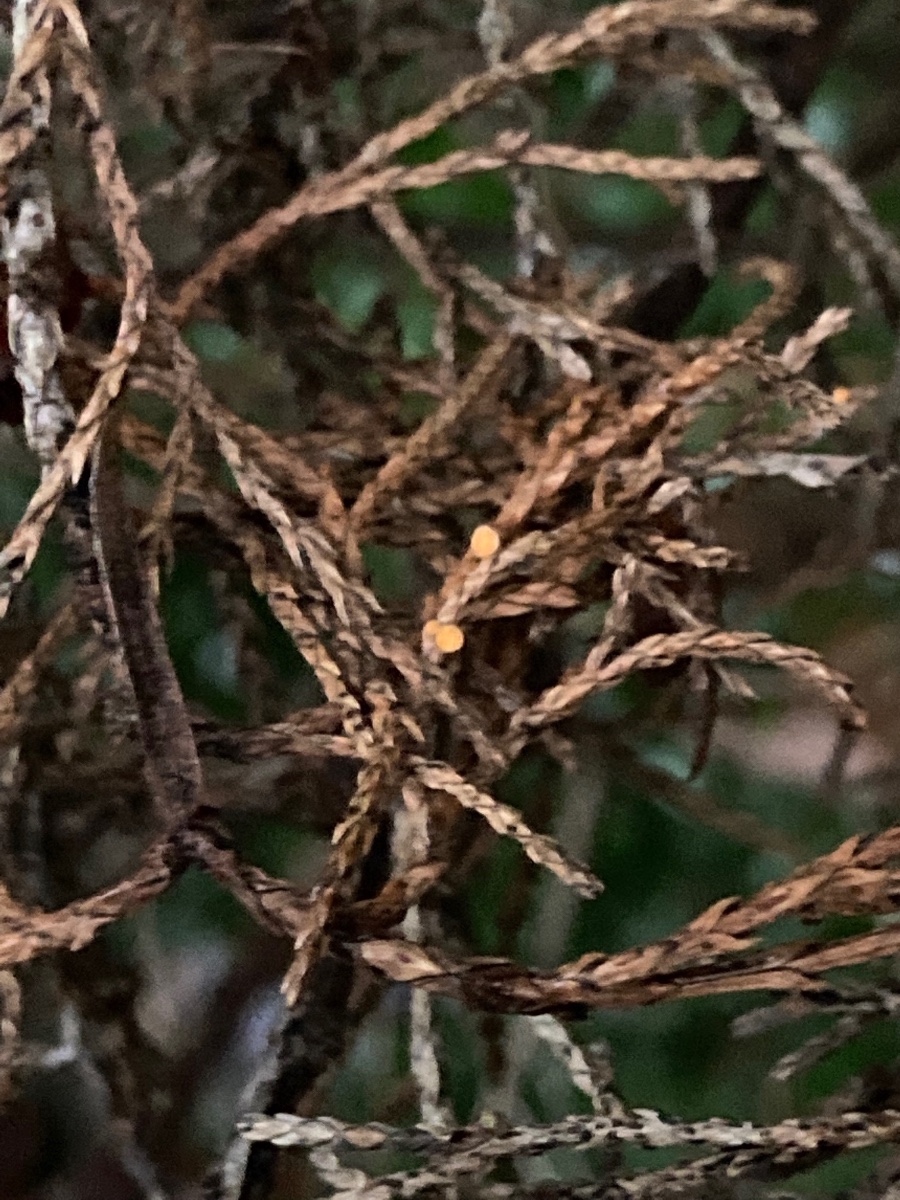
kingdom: Fungi
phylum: Ascomycota
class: Pezizomycetes
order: Pezizales
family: Sarcoscyphaceae
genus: Pithya
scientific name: Pithya cupressina
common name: lille dukatbæger
